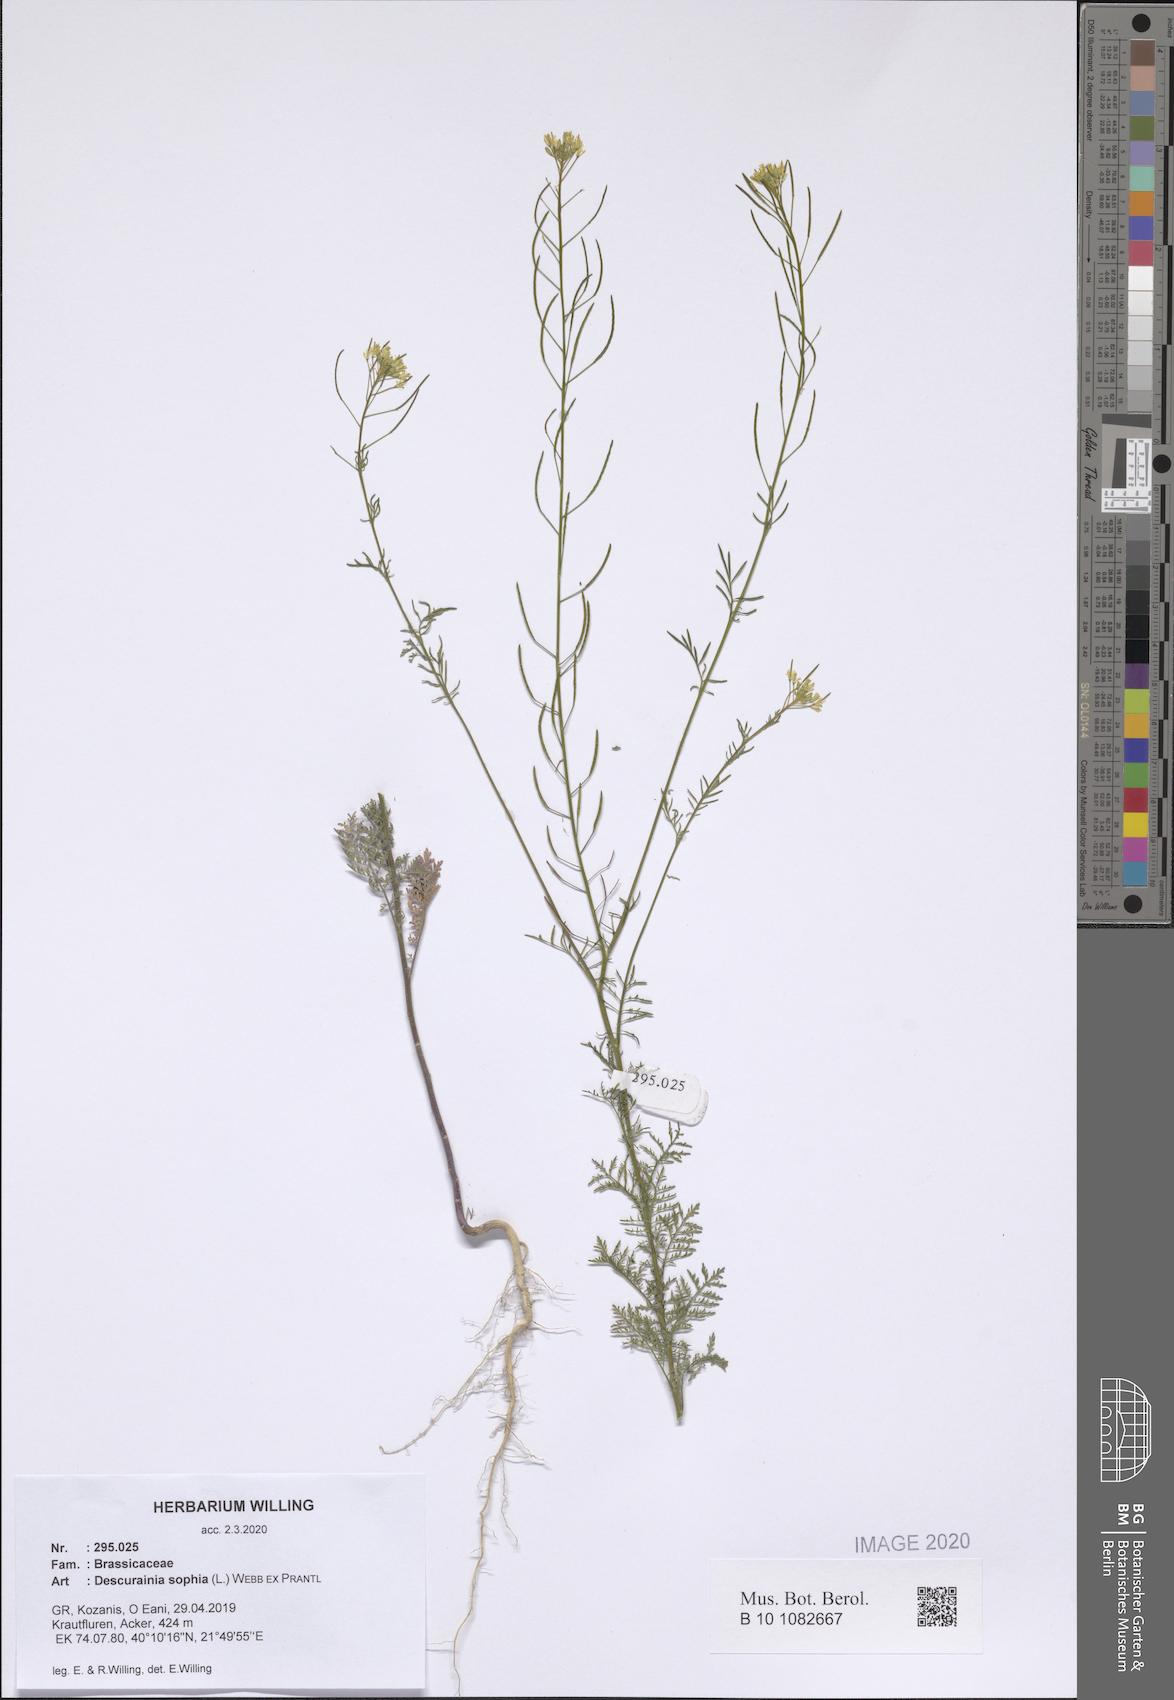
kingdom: Plantae
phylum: Tracheophyta
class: Magnoliopsida
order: Brassicales
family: Brassicaceae
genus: Descurainia
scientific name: Descurainia sophia
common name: Flixweed
